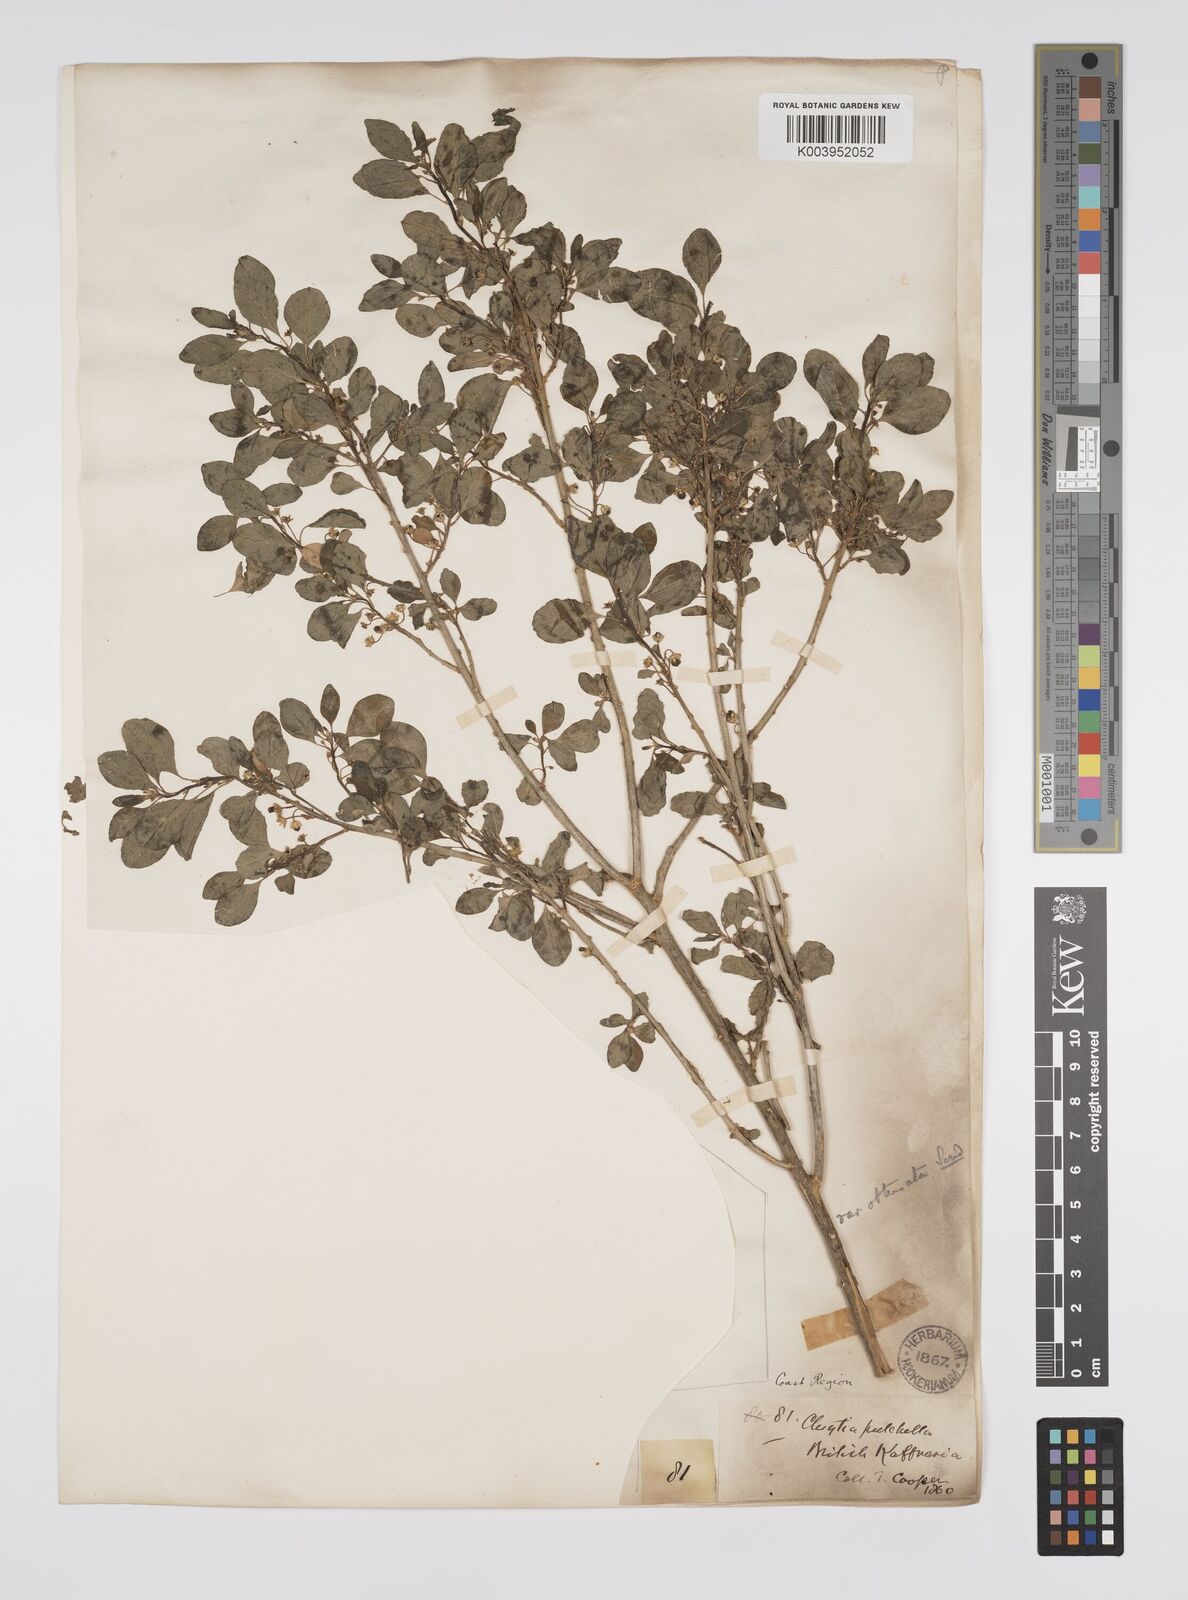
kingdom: Plantae
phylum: Tracheophyta
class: Magnoliopsida
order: Malpighiales
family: Peraceae
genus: Clutia
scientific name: Clutia pulchella
